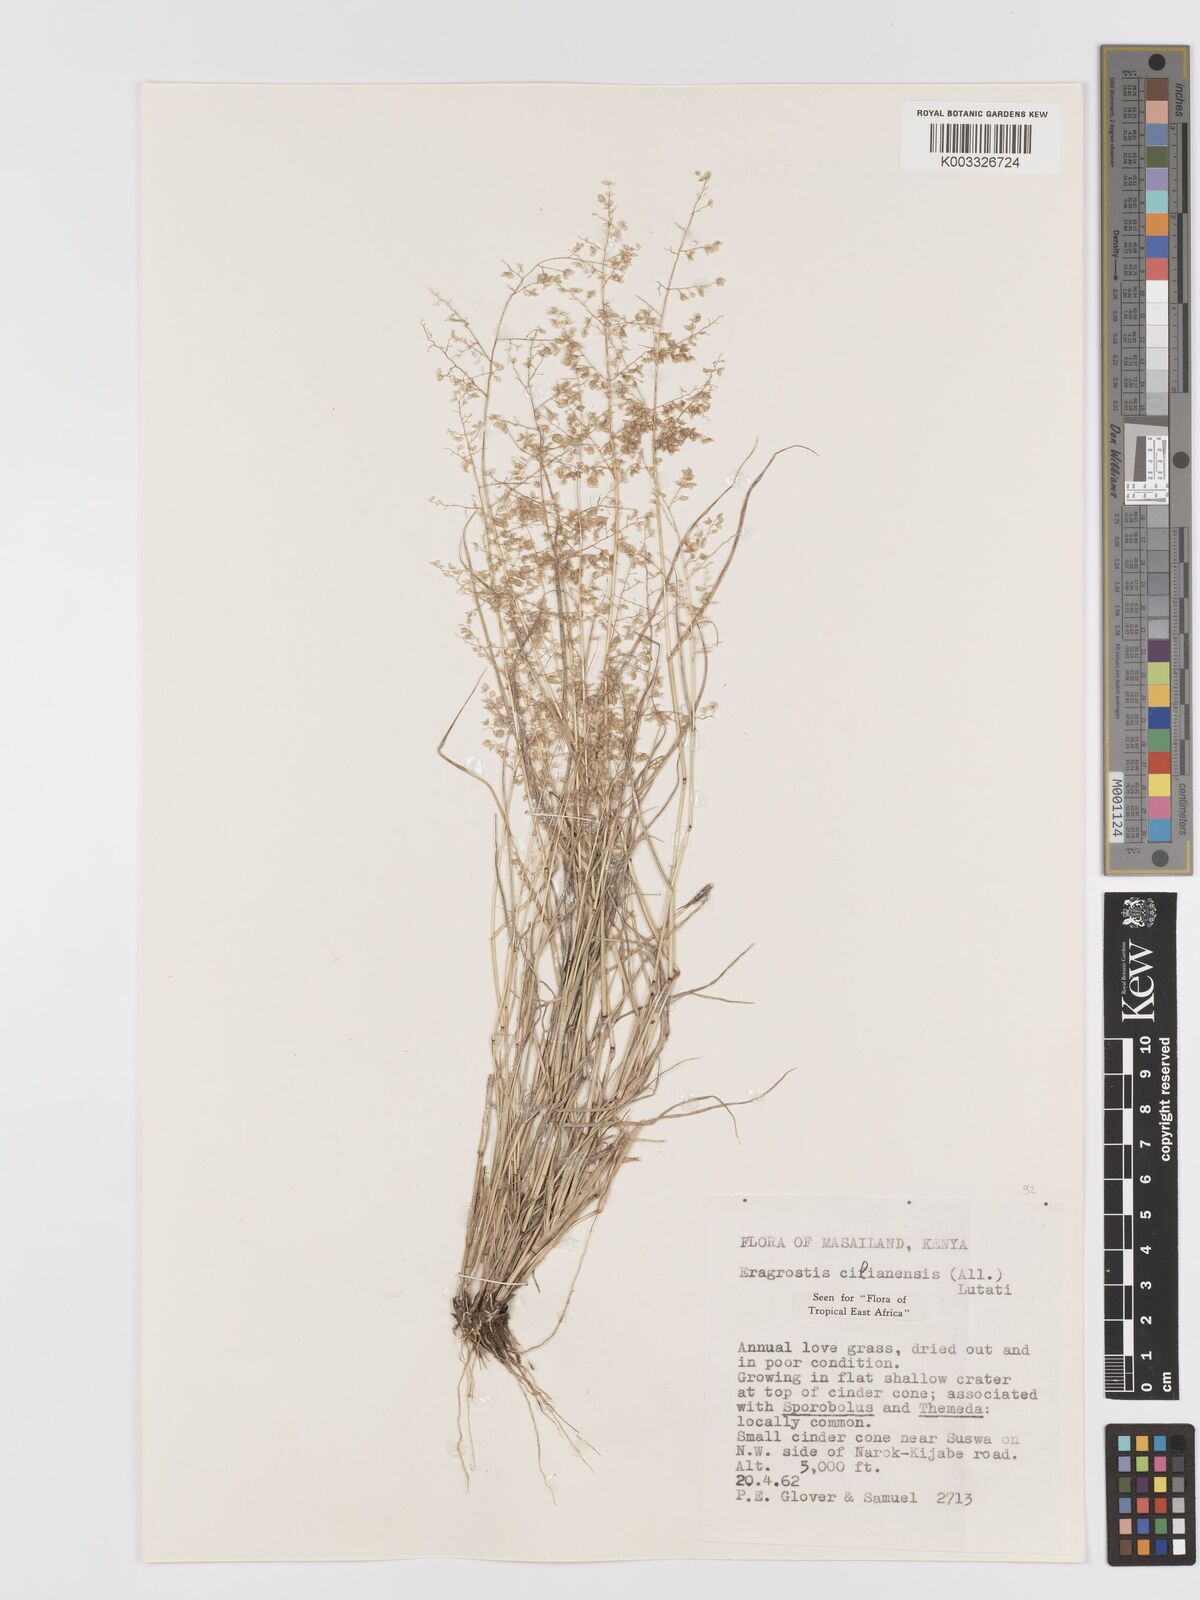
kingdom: Plantae
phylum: Tracheophyta
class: Liliopsida
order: Poales
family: Poaceae
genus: Eragrostis
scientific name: Eragrostis cilianensis
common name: Stinkgrass
